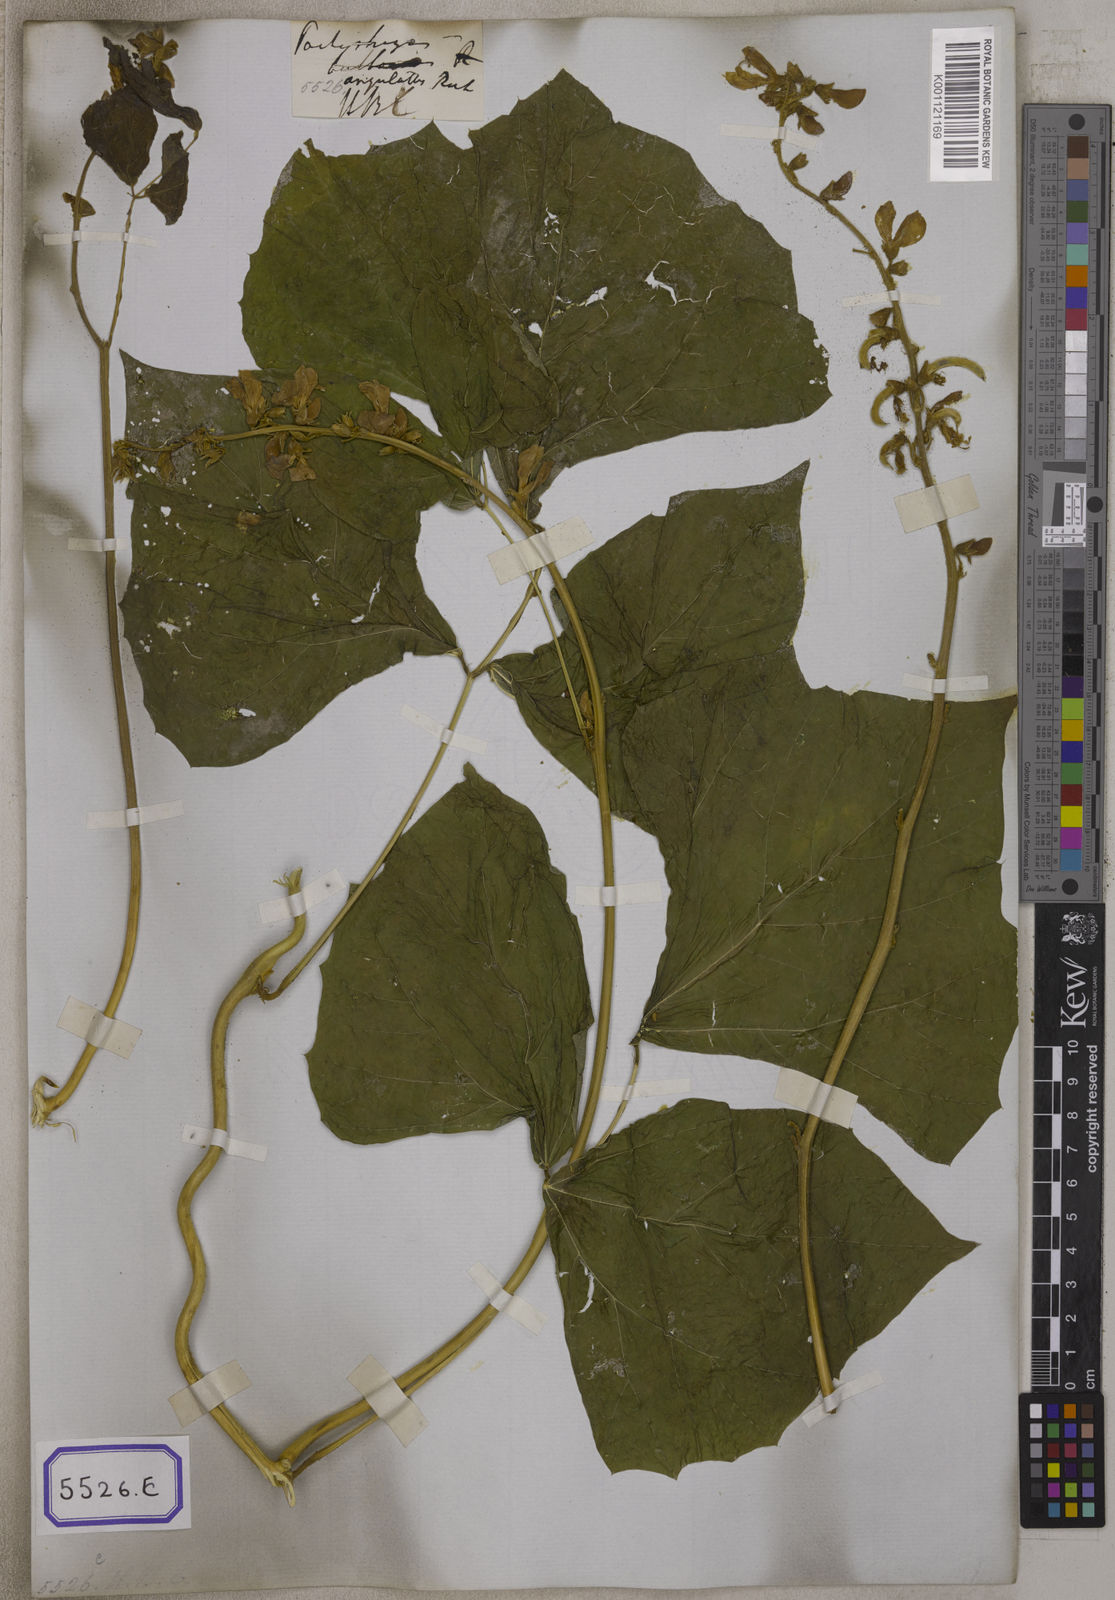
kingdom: Plantae
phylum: Tracheophyta
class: Magnoliopsida
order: Fabales
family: Fabaceae
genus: Pachyrhizus
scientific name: Pachyrhizus
